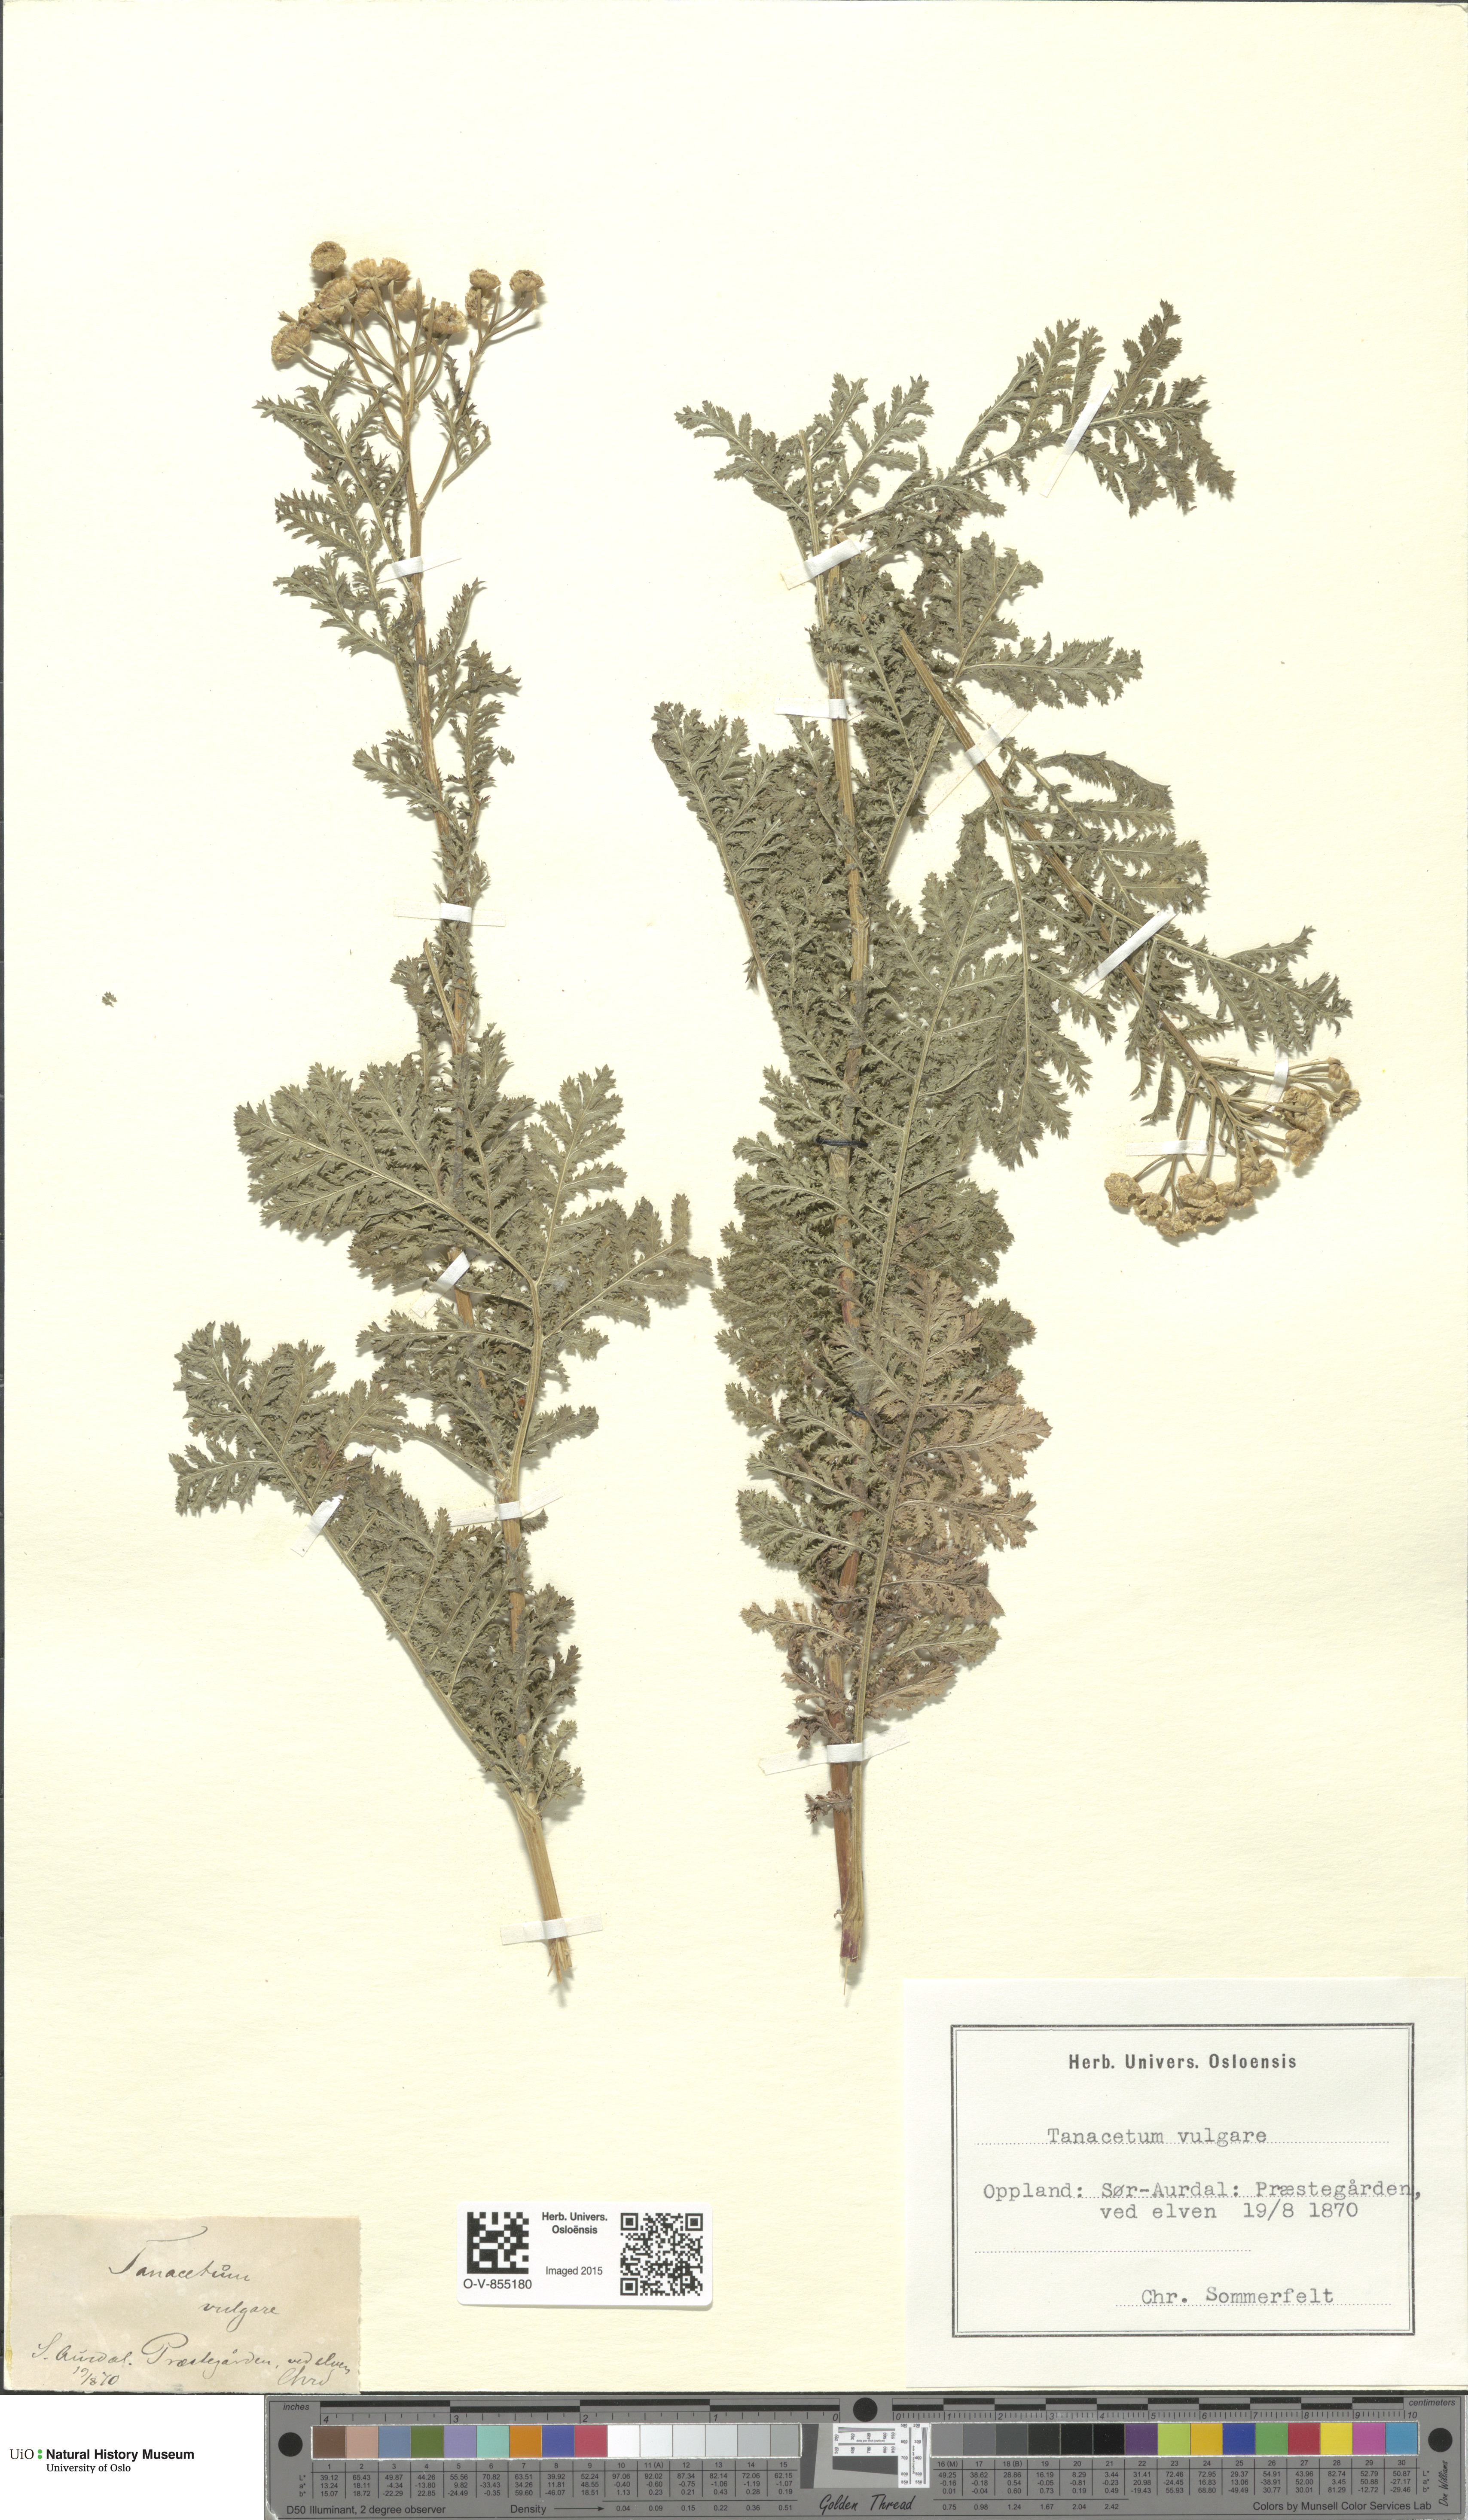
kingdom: Plantae
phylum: Tracheophyta
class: Magnoliopsida
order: Asterales
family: Asteraceae
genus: Tanacetum
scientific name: Tanacetum vulgare
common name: Common tansy
